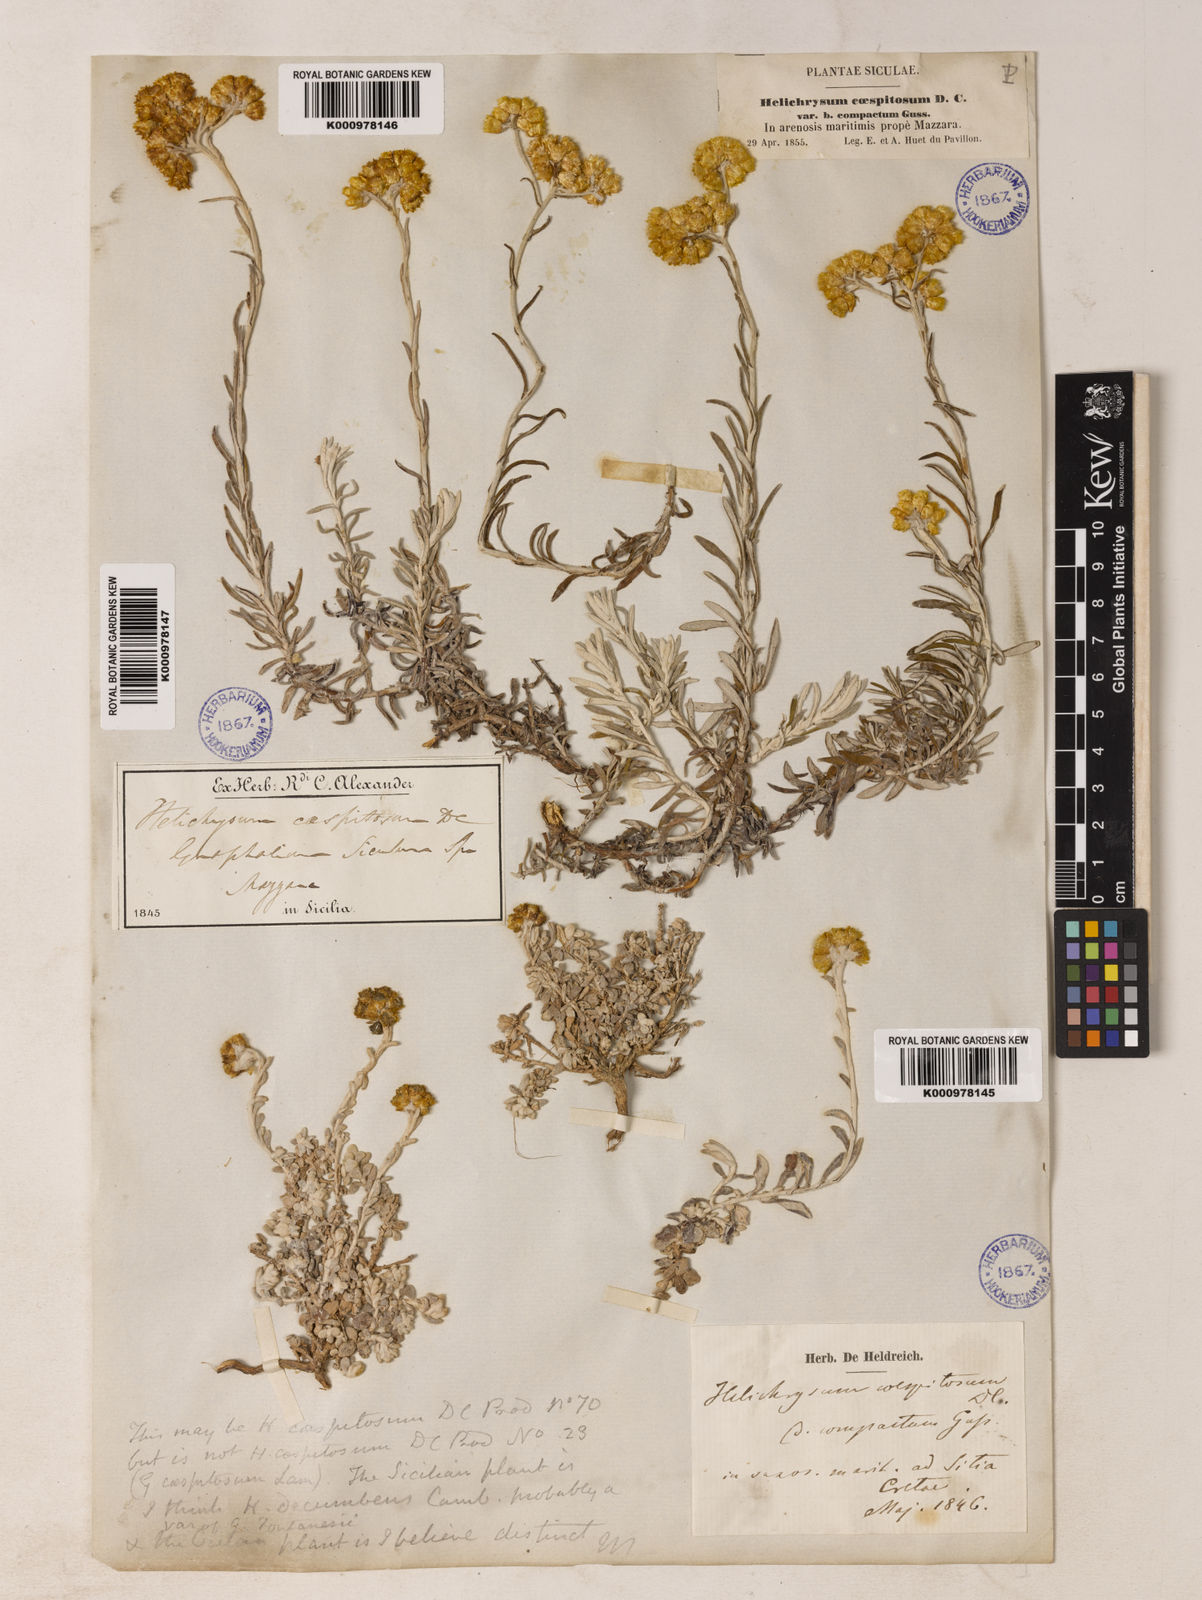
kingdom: Plantae
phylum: Tracheophyta
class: Magnoliopsida
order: Asterales
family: Asteraceae
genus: Helichrysum
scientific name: Helichrysum
